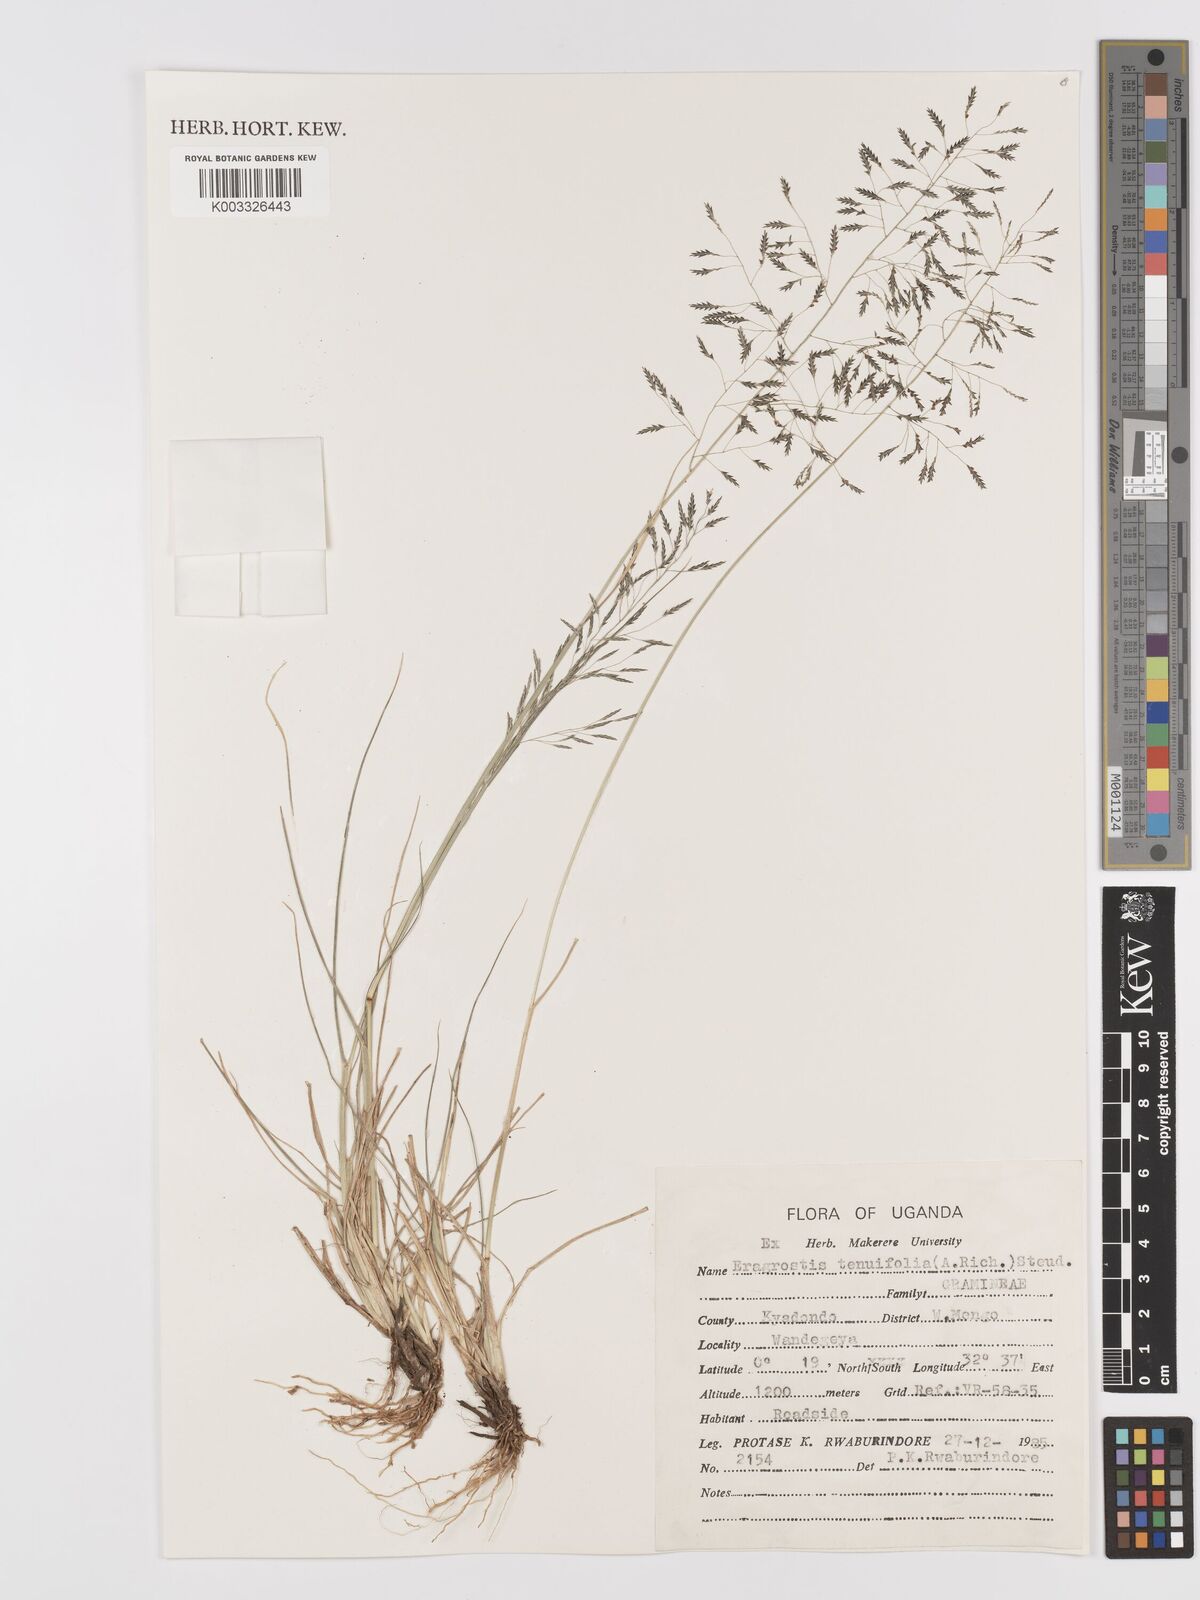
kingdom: Plantae
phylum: Tracheophyta
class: Liliopsida
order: Poales
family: Poaceae
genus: Eragrostis
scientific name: Eragrostis tenuifolia
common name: Elastic grass
